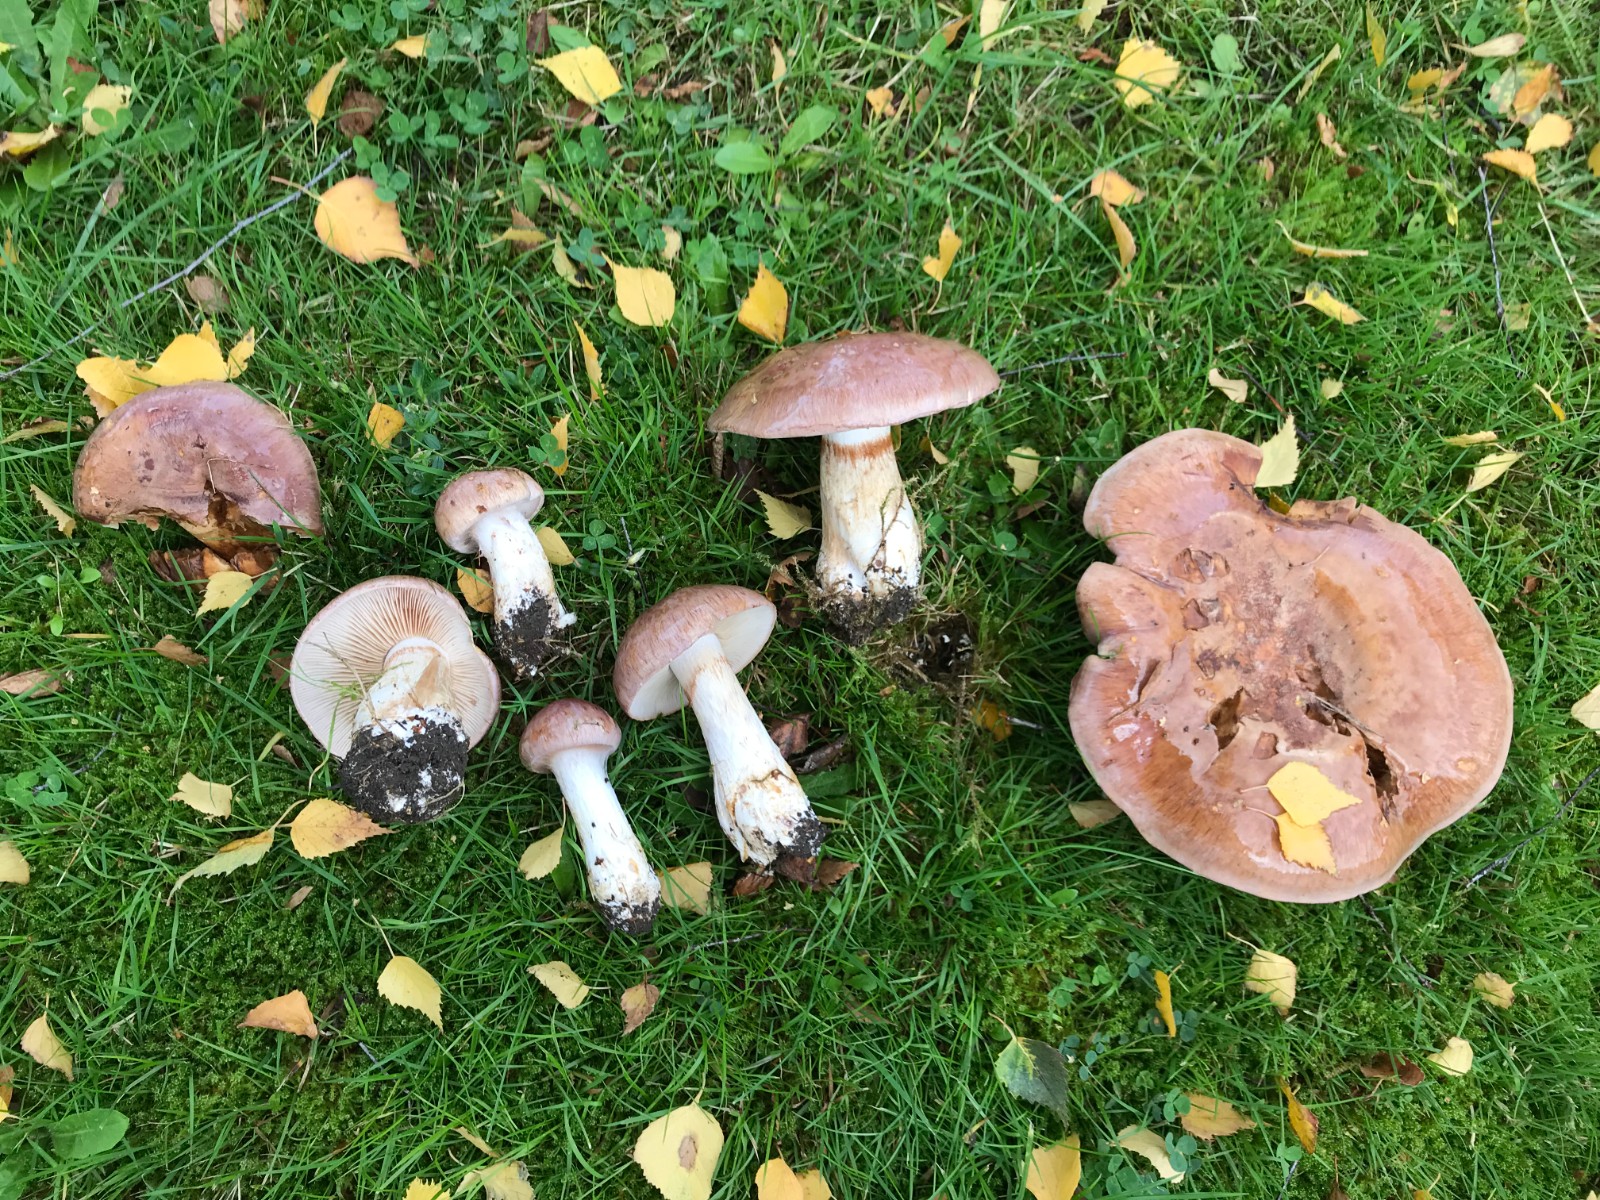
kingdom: Fungi
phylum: Basidiomycota
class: Agaricomycetes
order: Agaricales
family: Cortinariaceae
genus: Phlegmacium
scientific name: Phlegmacium balteatocumatile
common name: violettrådet slørhat
